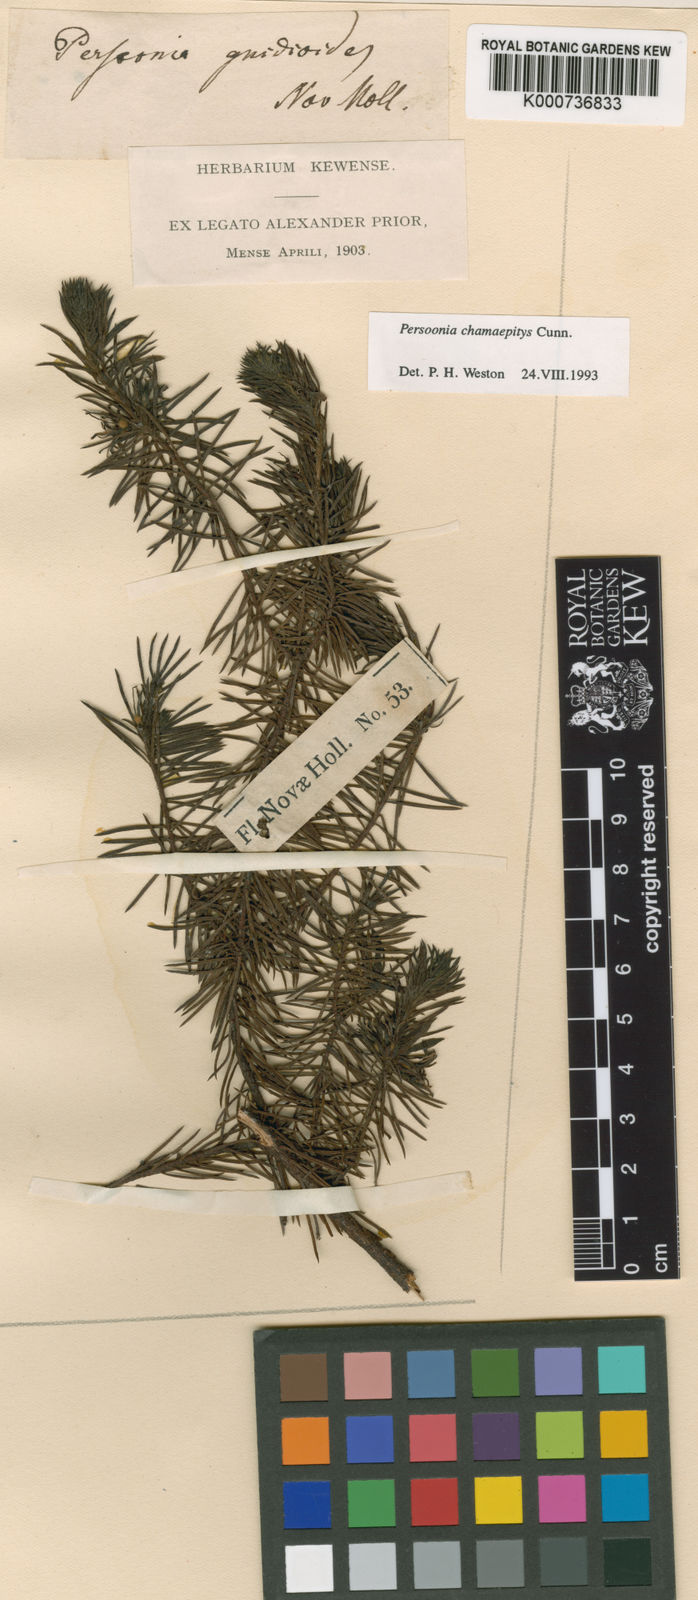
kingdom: Plantae
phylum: Tracheophyta
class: Magnoliopsida
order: Proteales
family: Proteaceae
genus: Persoonia
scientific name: Persoonia chamaepitys
